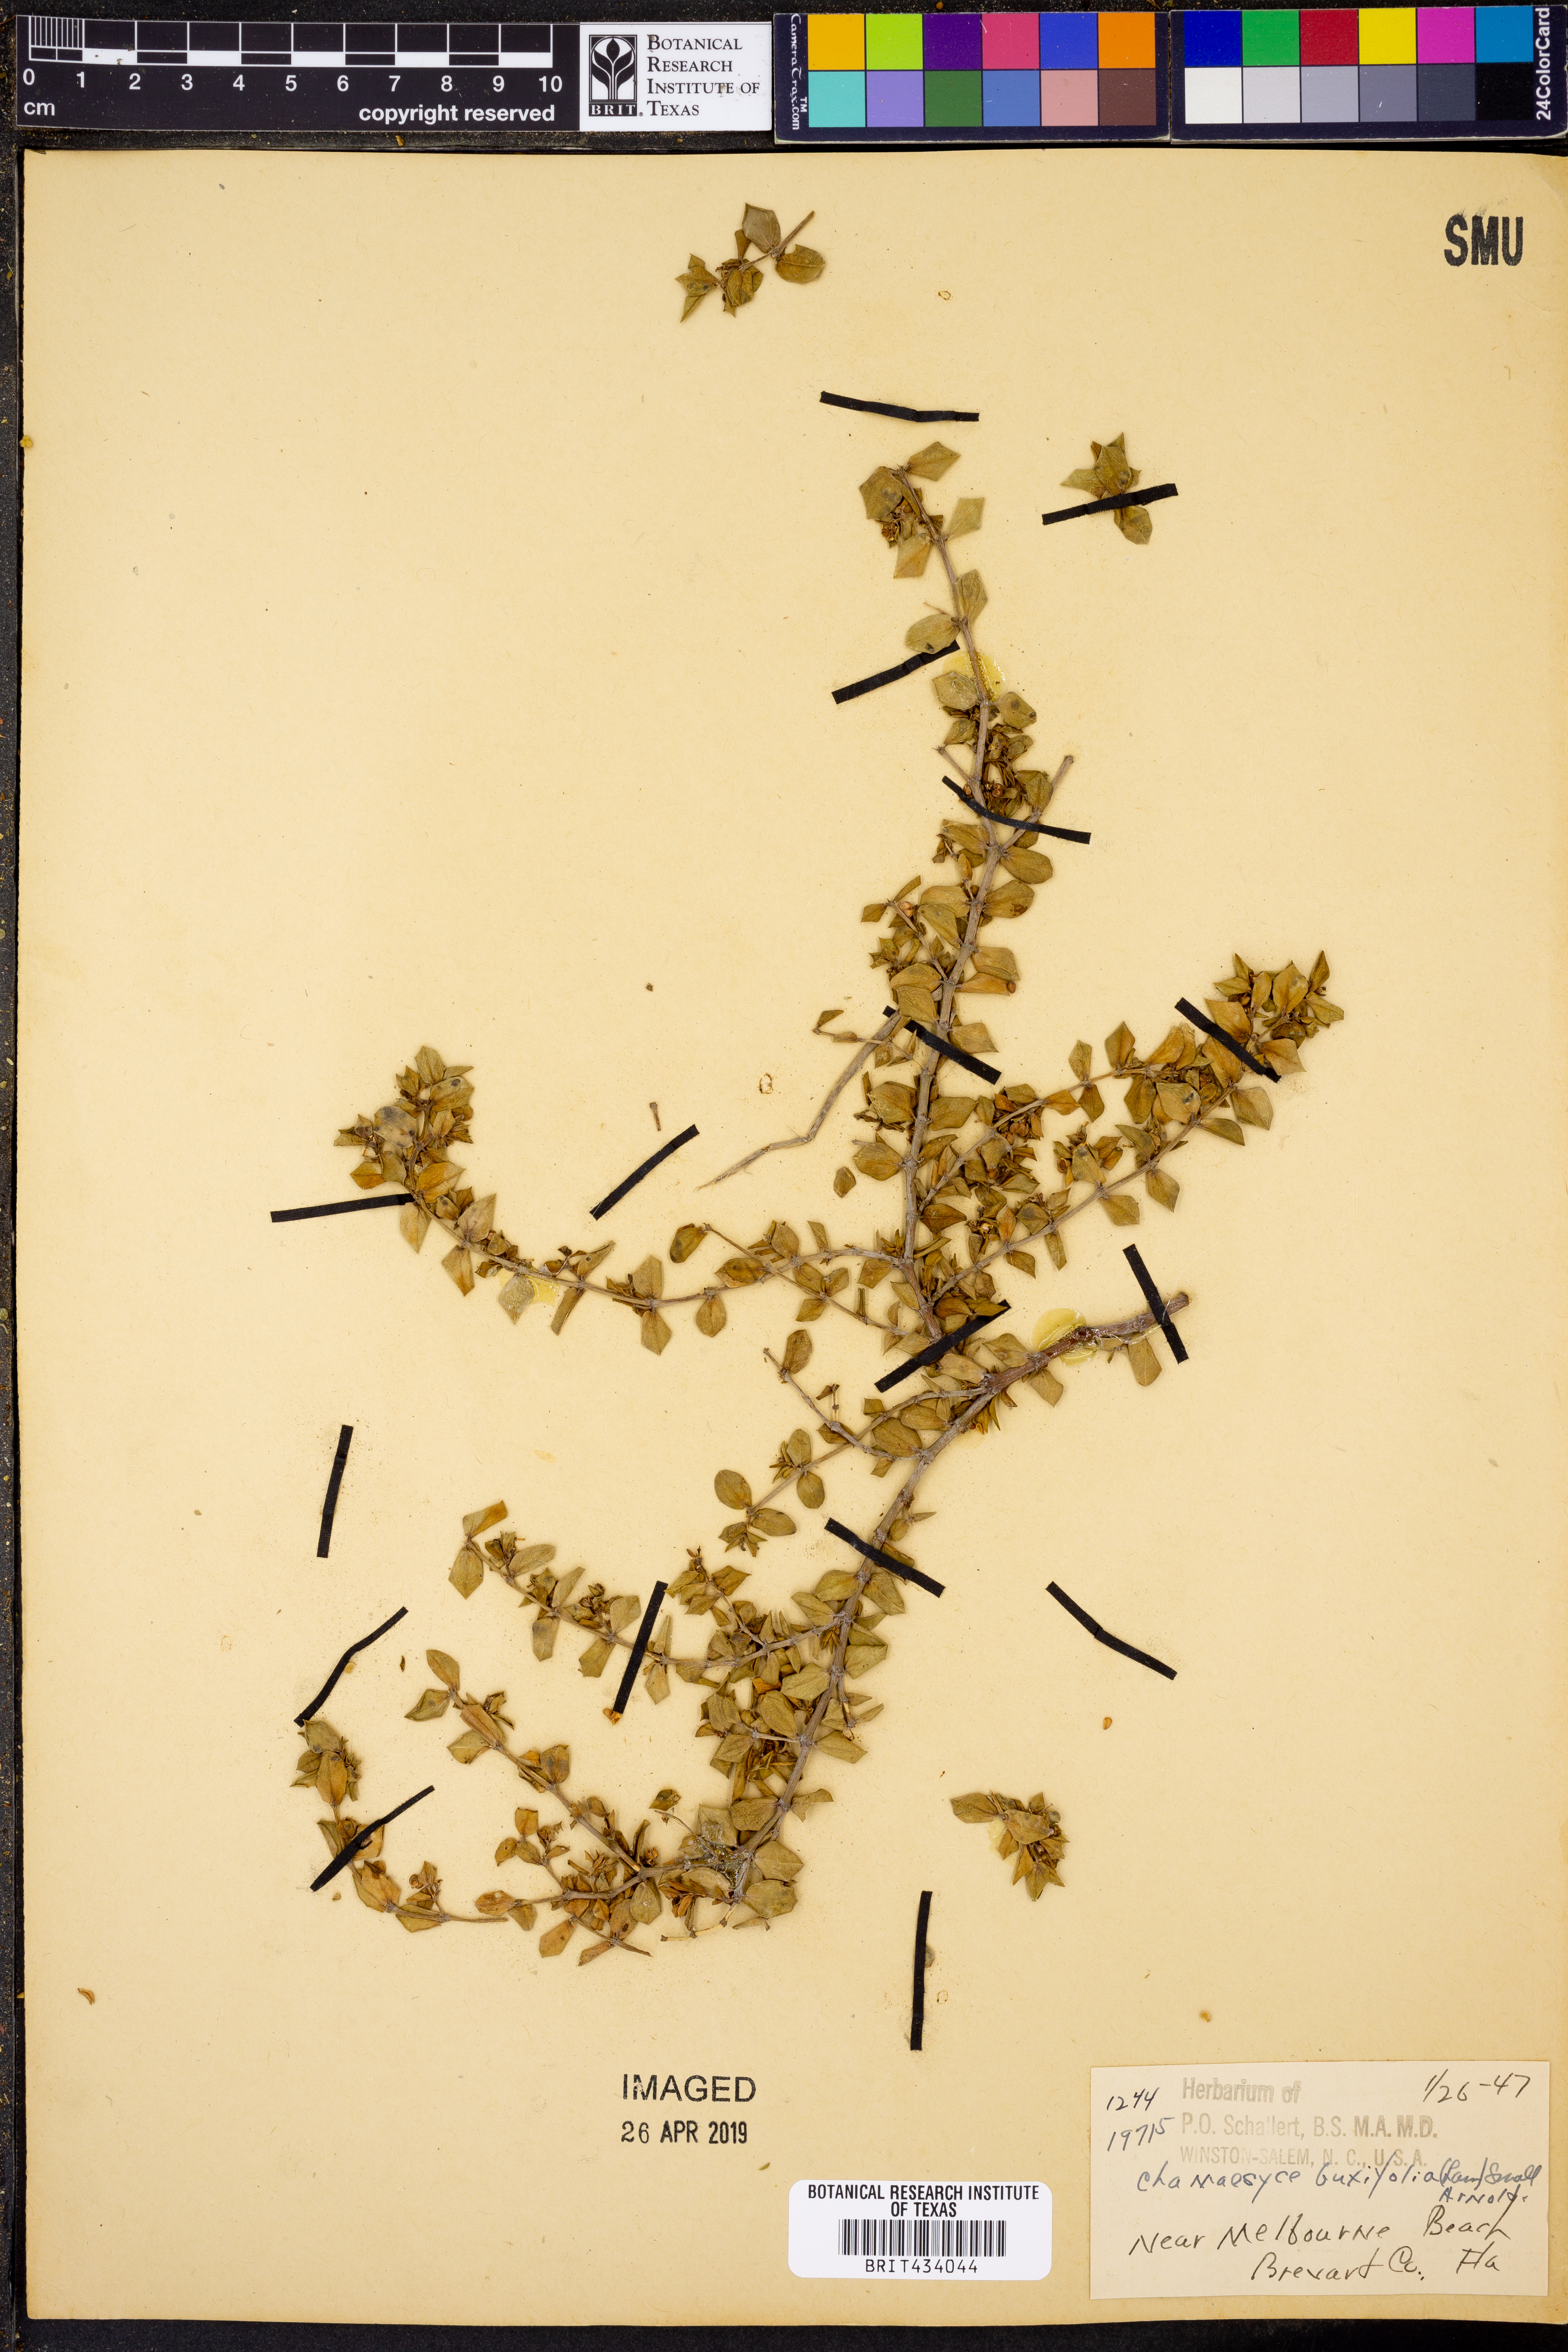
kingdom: Plantae
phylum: Tracheophyta
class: Magnoliopsida
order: Malpighiales
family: Euphorbiaceae
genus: Euphorbia
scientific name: Euphorbia mesembryanthemifolia
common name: Coastal beach sandmat
